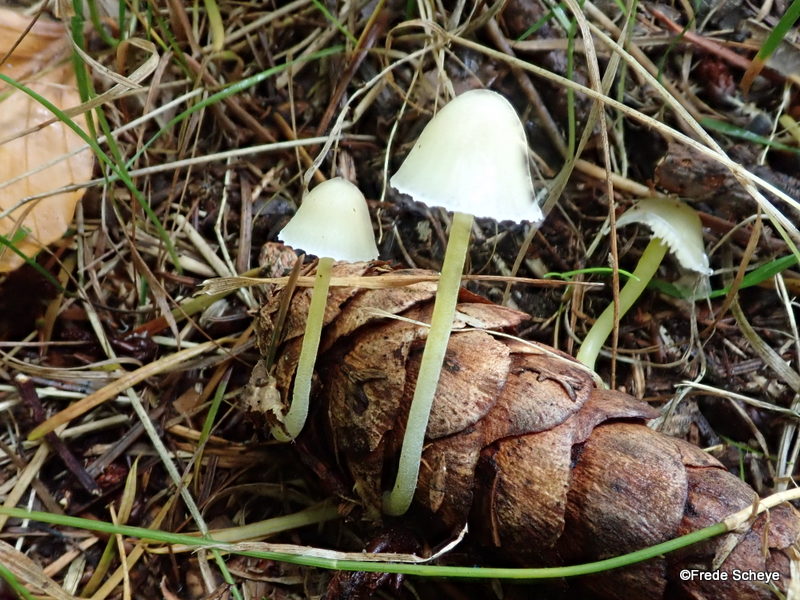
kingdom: Fungi
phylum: Basidiomycota
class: Agaricomycetes
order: Agaricales
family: Mycenaceae
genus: Mycena
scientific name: Mycena epipterygia
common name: gulstokket huesvamp
